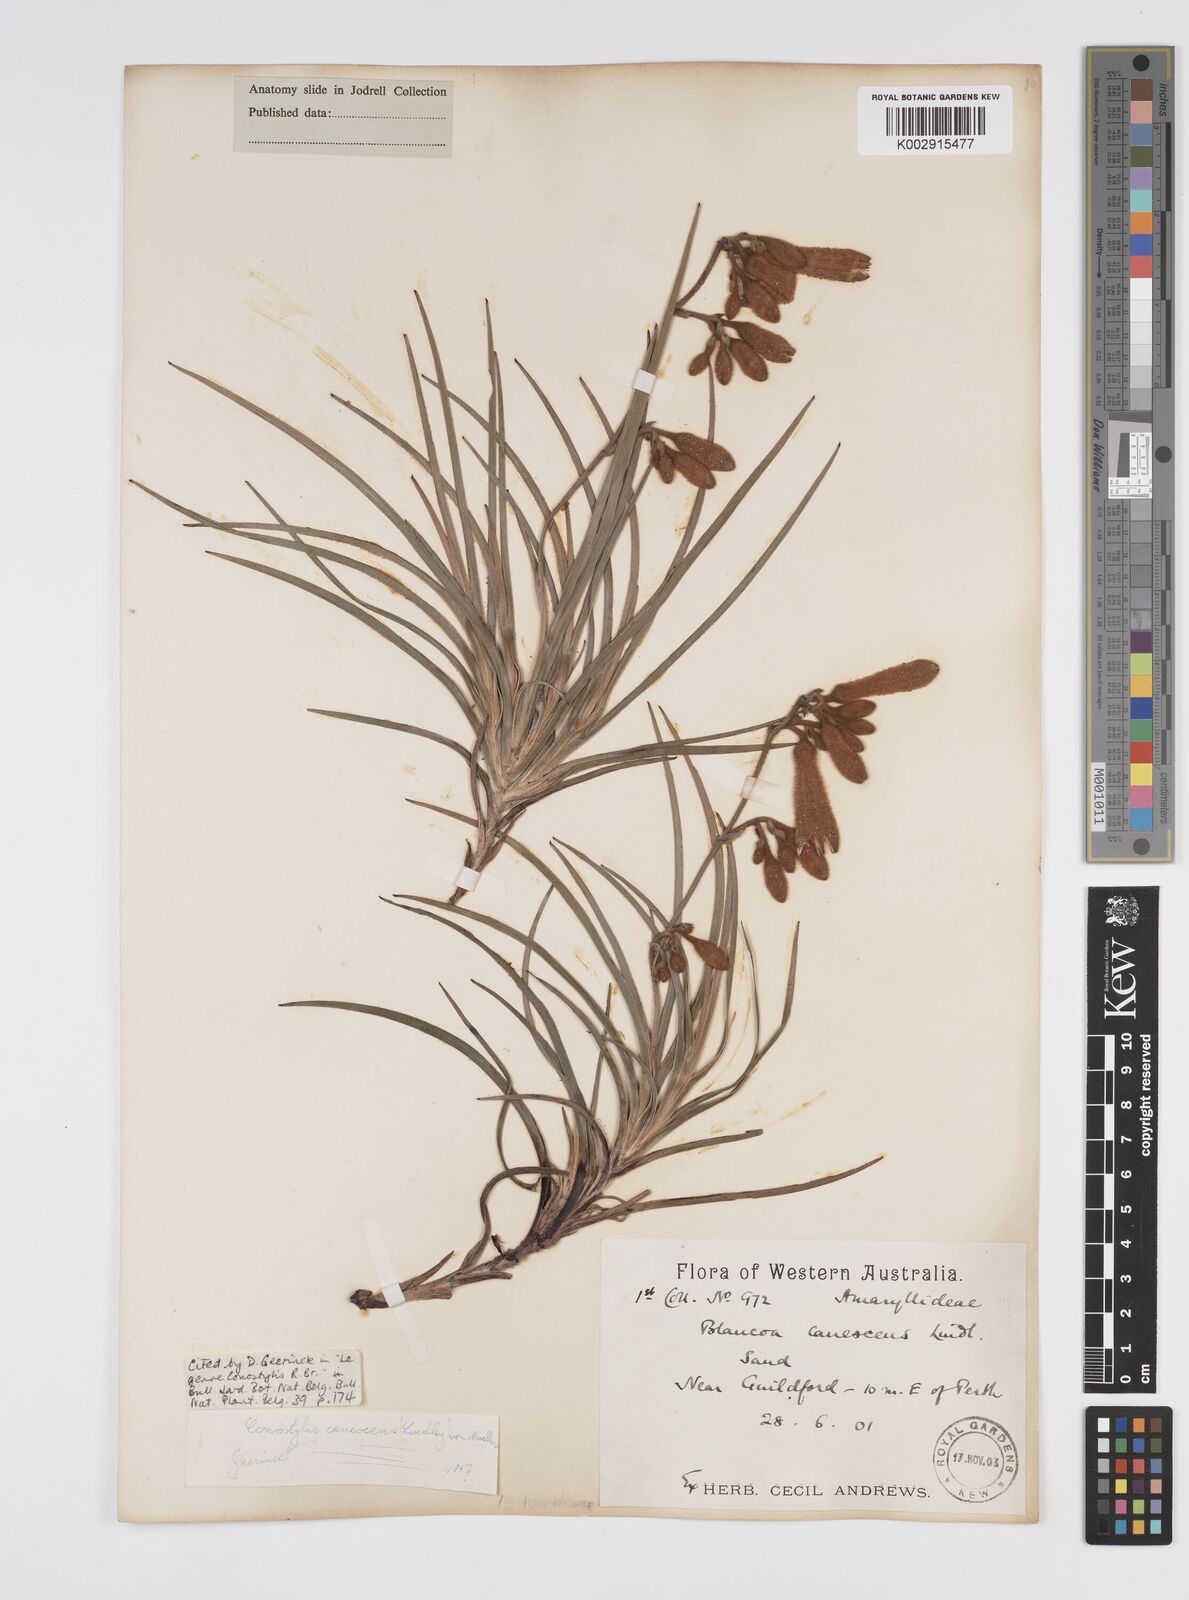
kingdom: Plantae
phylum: Tracheophyta
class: Liliopsida
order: Commelinales
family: Haemodoraceae
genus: Blancoa
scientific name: Blancoa canescens
